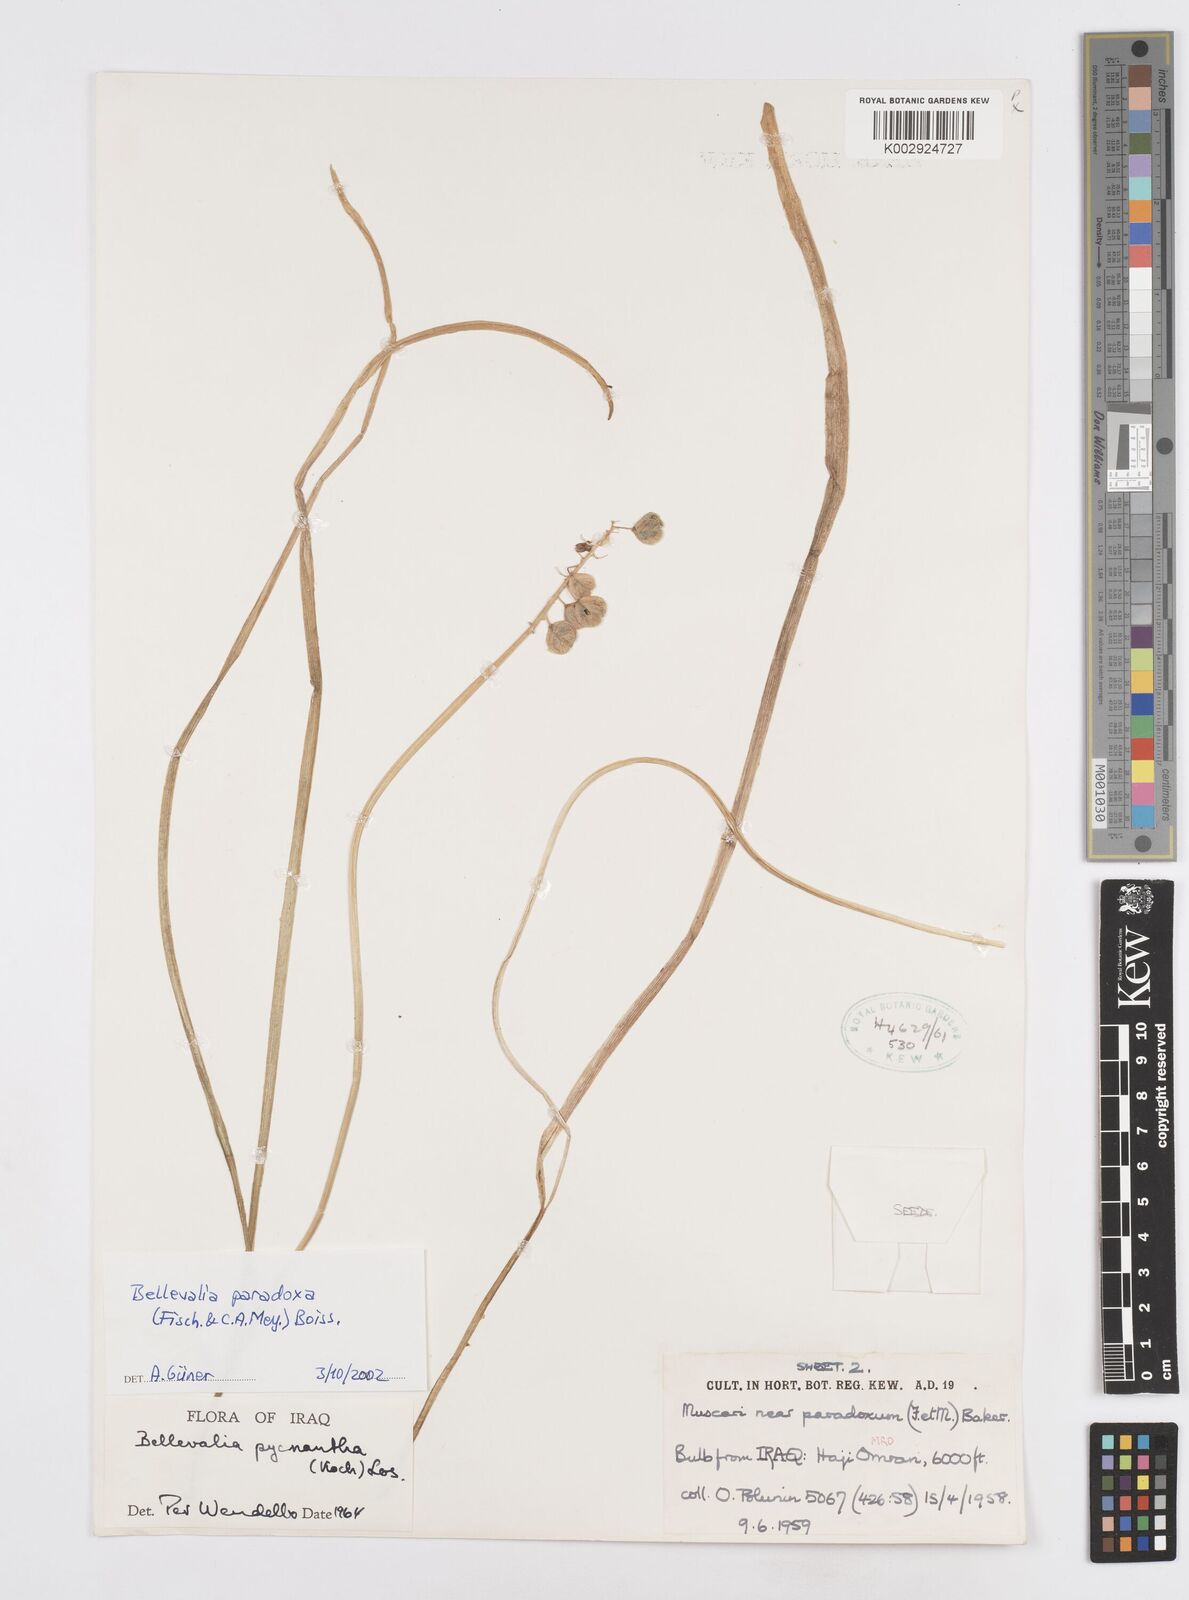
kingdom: Plantae
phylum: Tracheophyta
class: Liliopsida
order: Asparagales
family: Asparagaceae
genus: Bellevalia
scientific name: Bellevalia paradoxa
